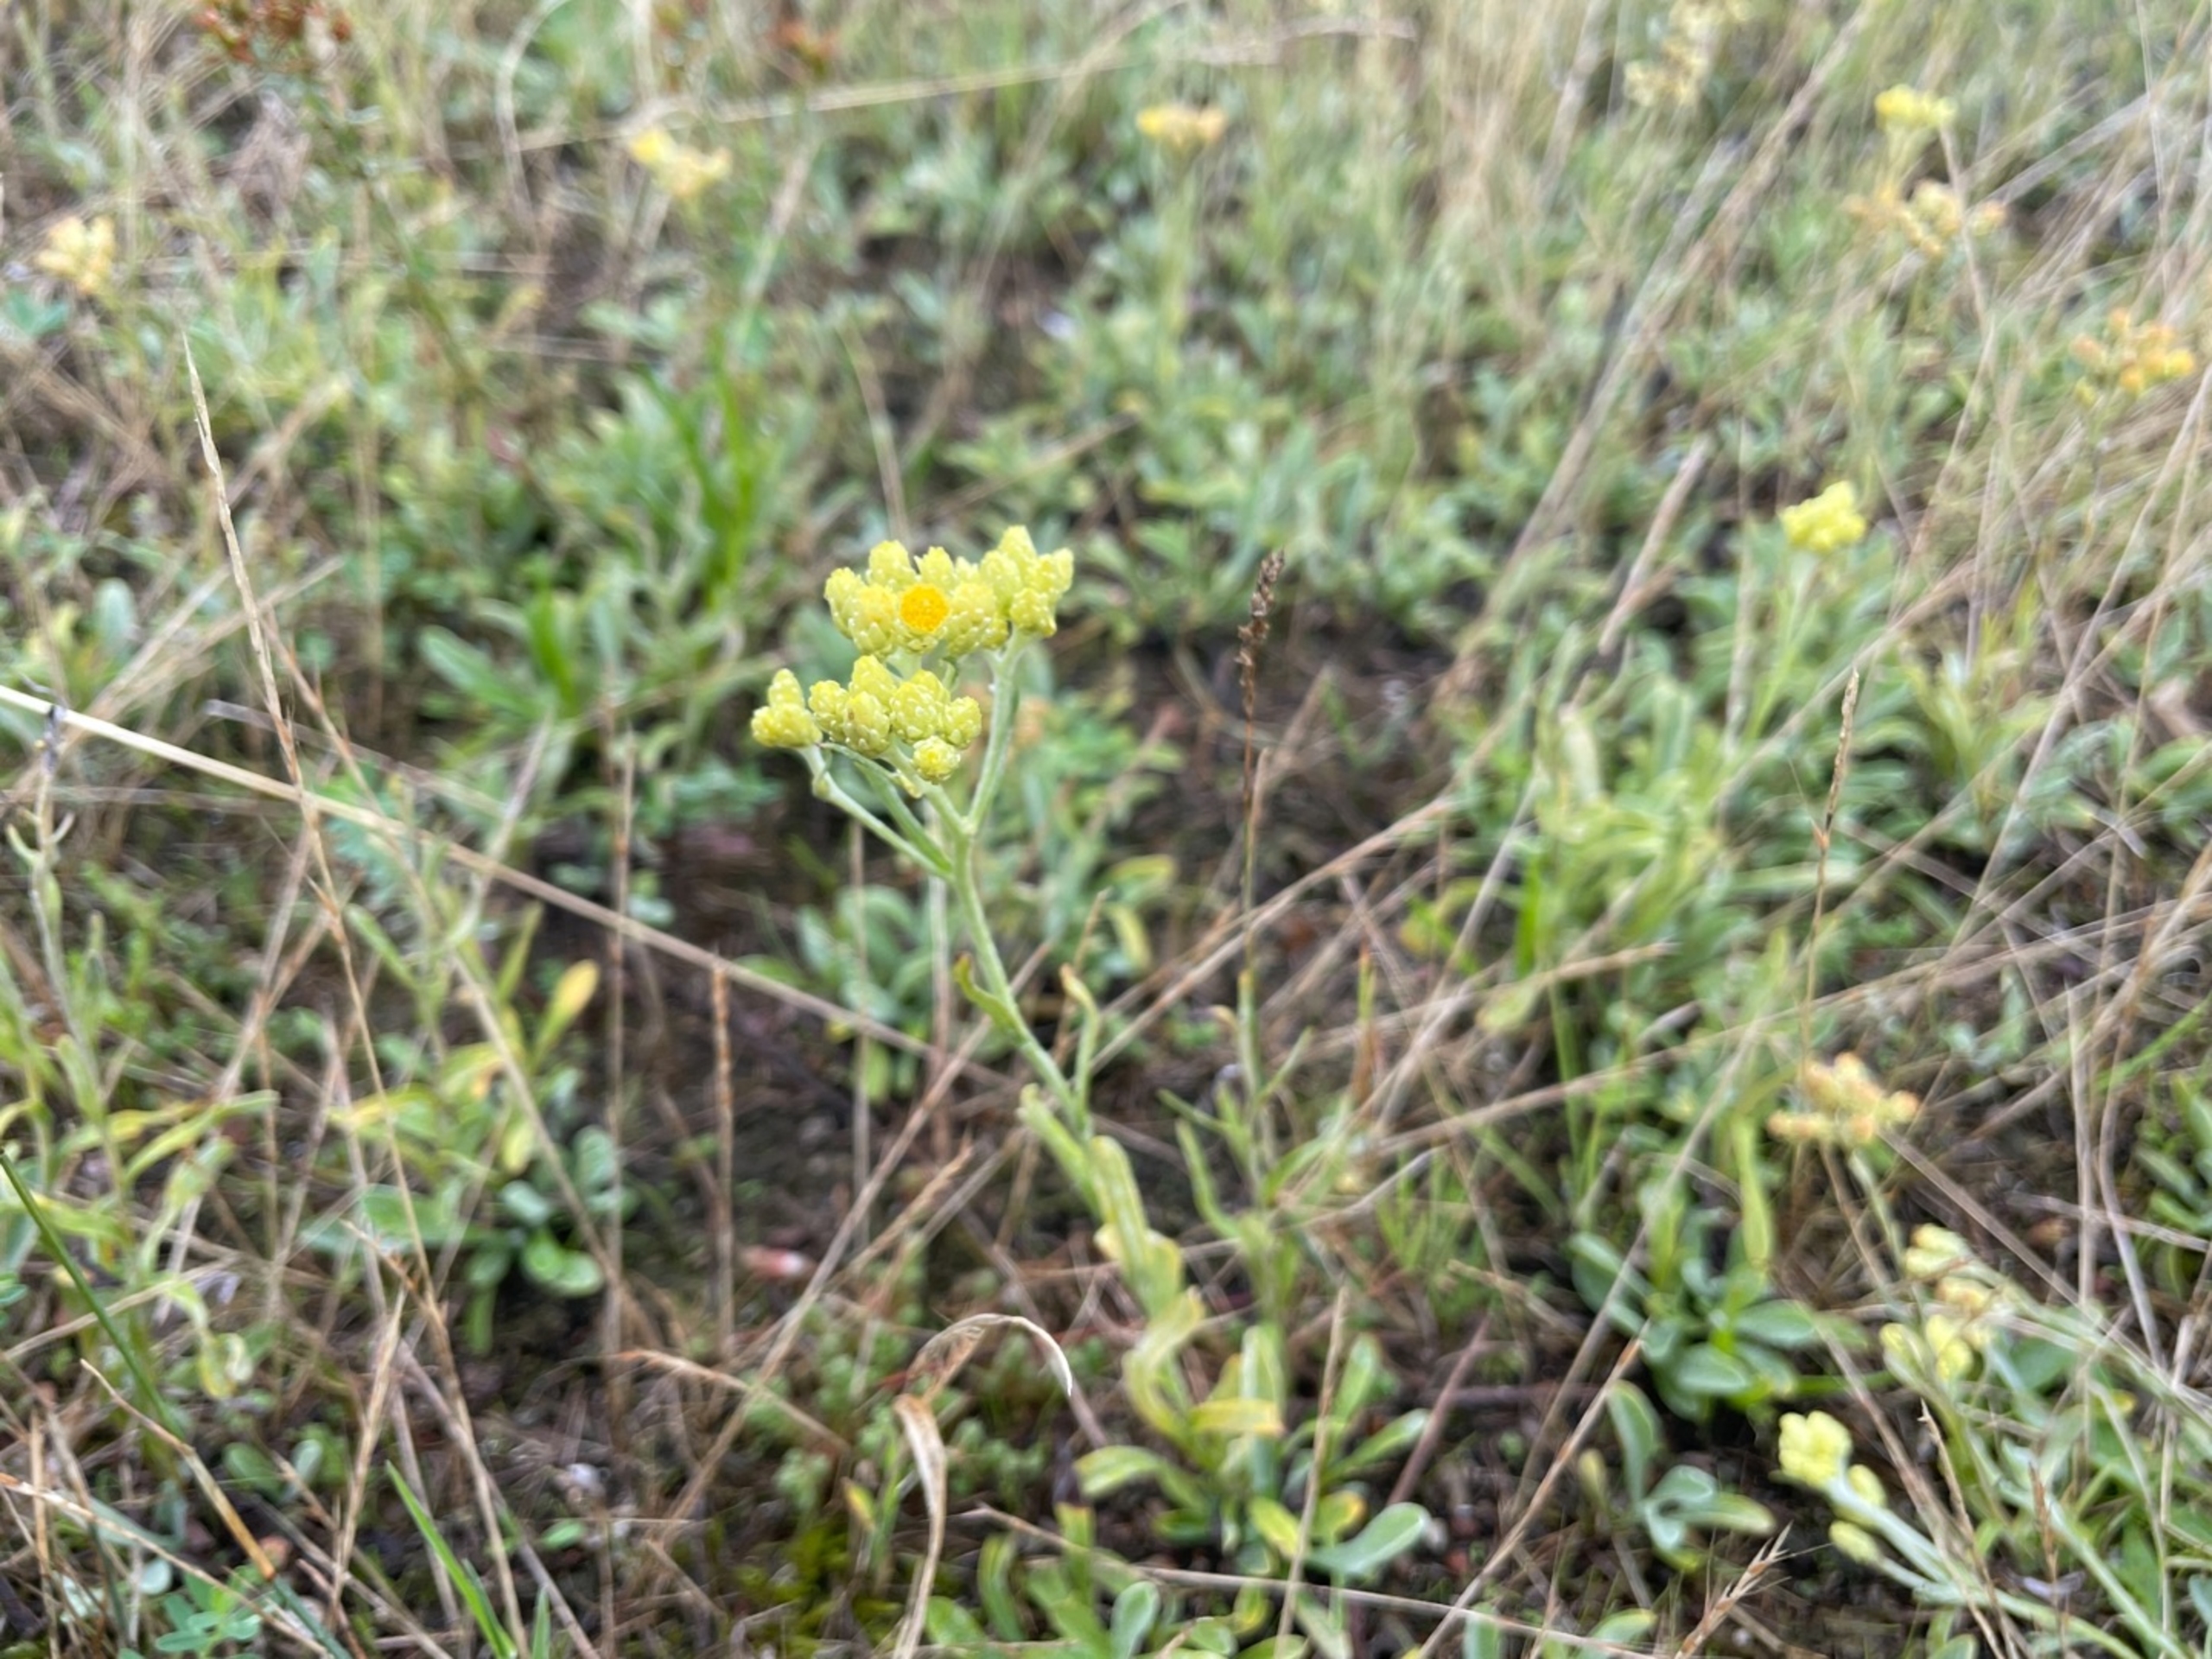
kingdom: Plantae
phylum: Tracheophyta
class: Magnoliopsida
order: Asterales
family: Asteraceae
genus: Helichrysum
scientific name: Helichrysum arenarium
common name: Gul evighedsblomst
